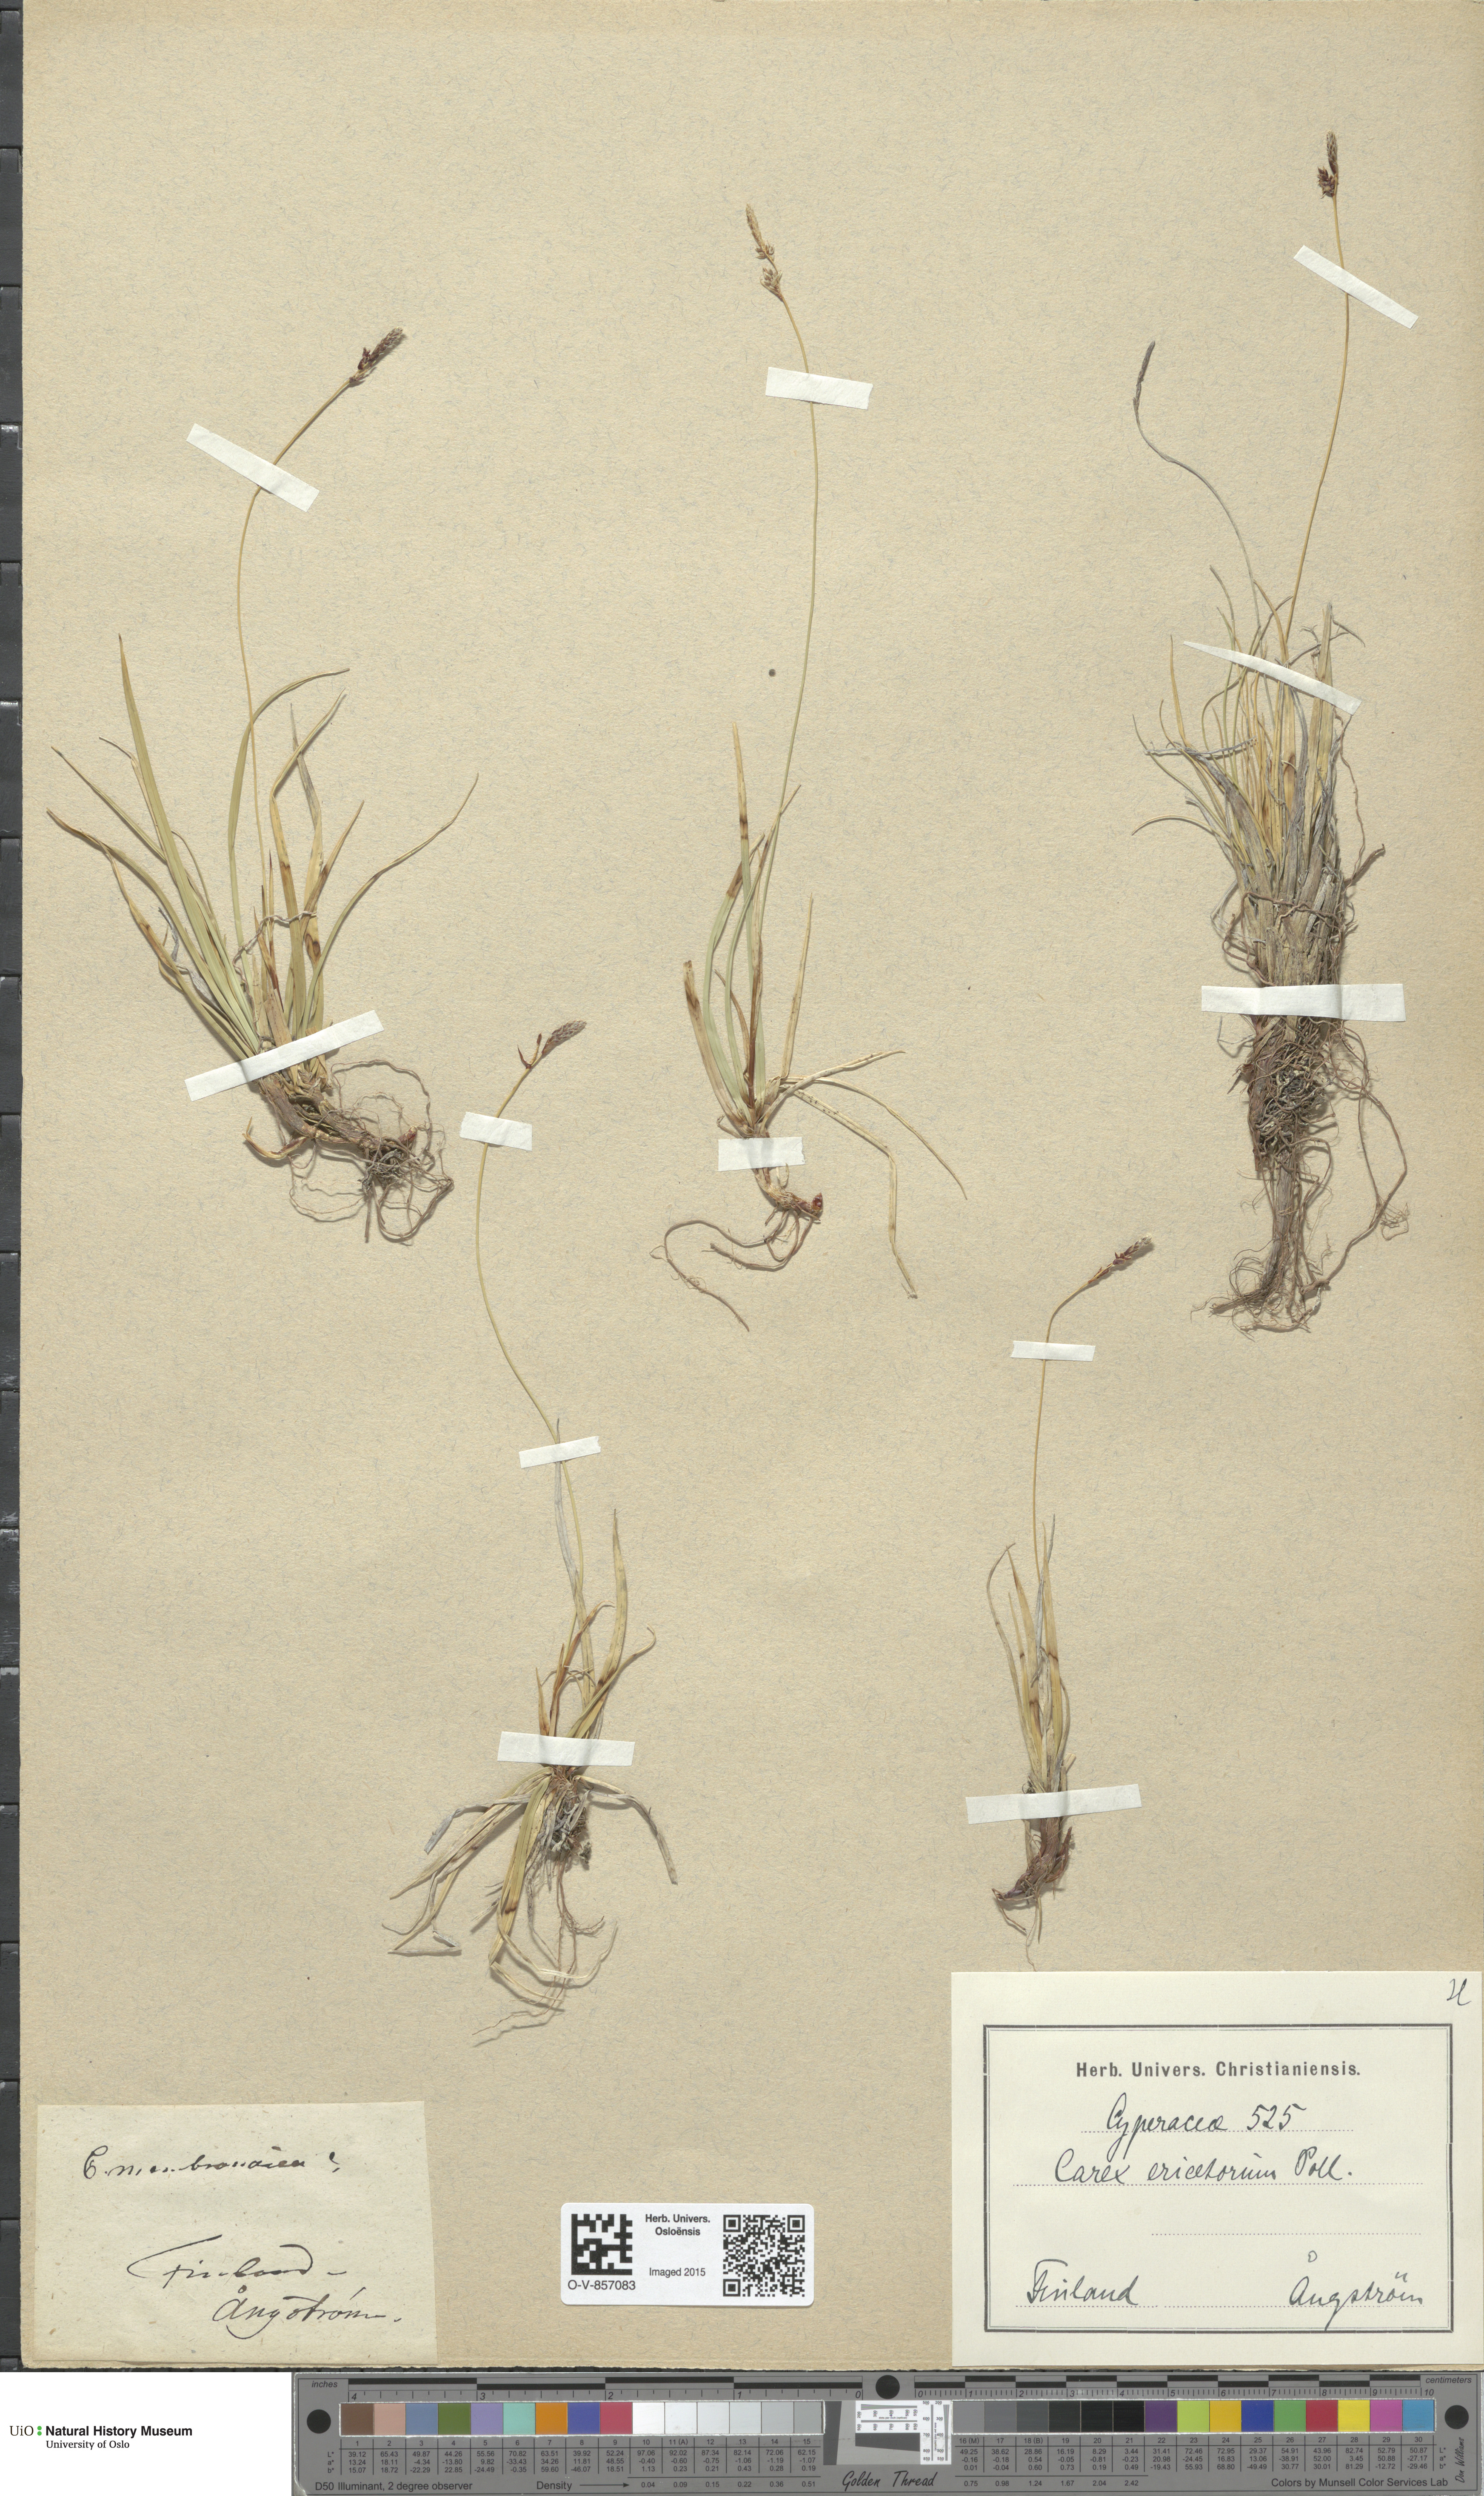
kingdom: Plantae
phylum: Tracheophyta
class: Liliopsida
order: Poales
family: Cyperaceae
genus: Carex
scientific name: Carex ericetorum
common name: Rare spring-sedge
